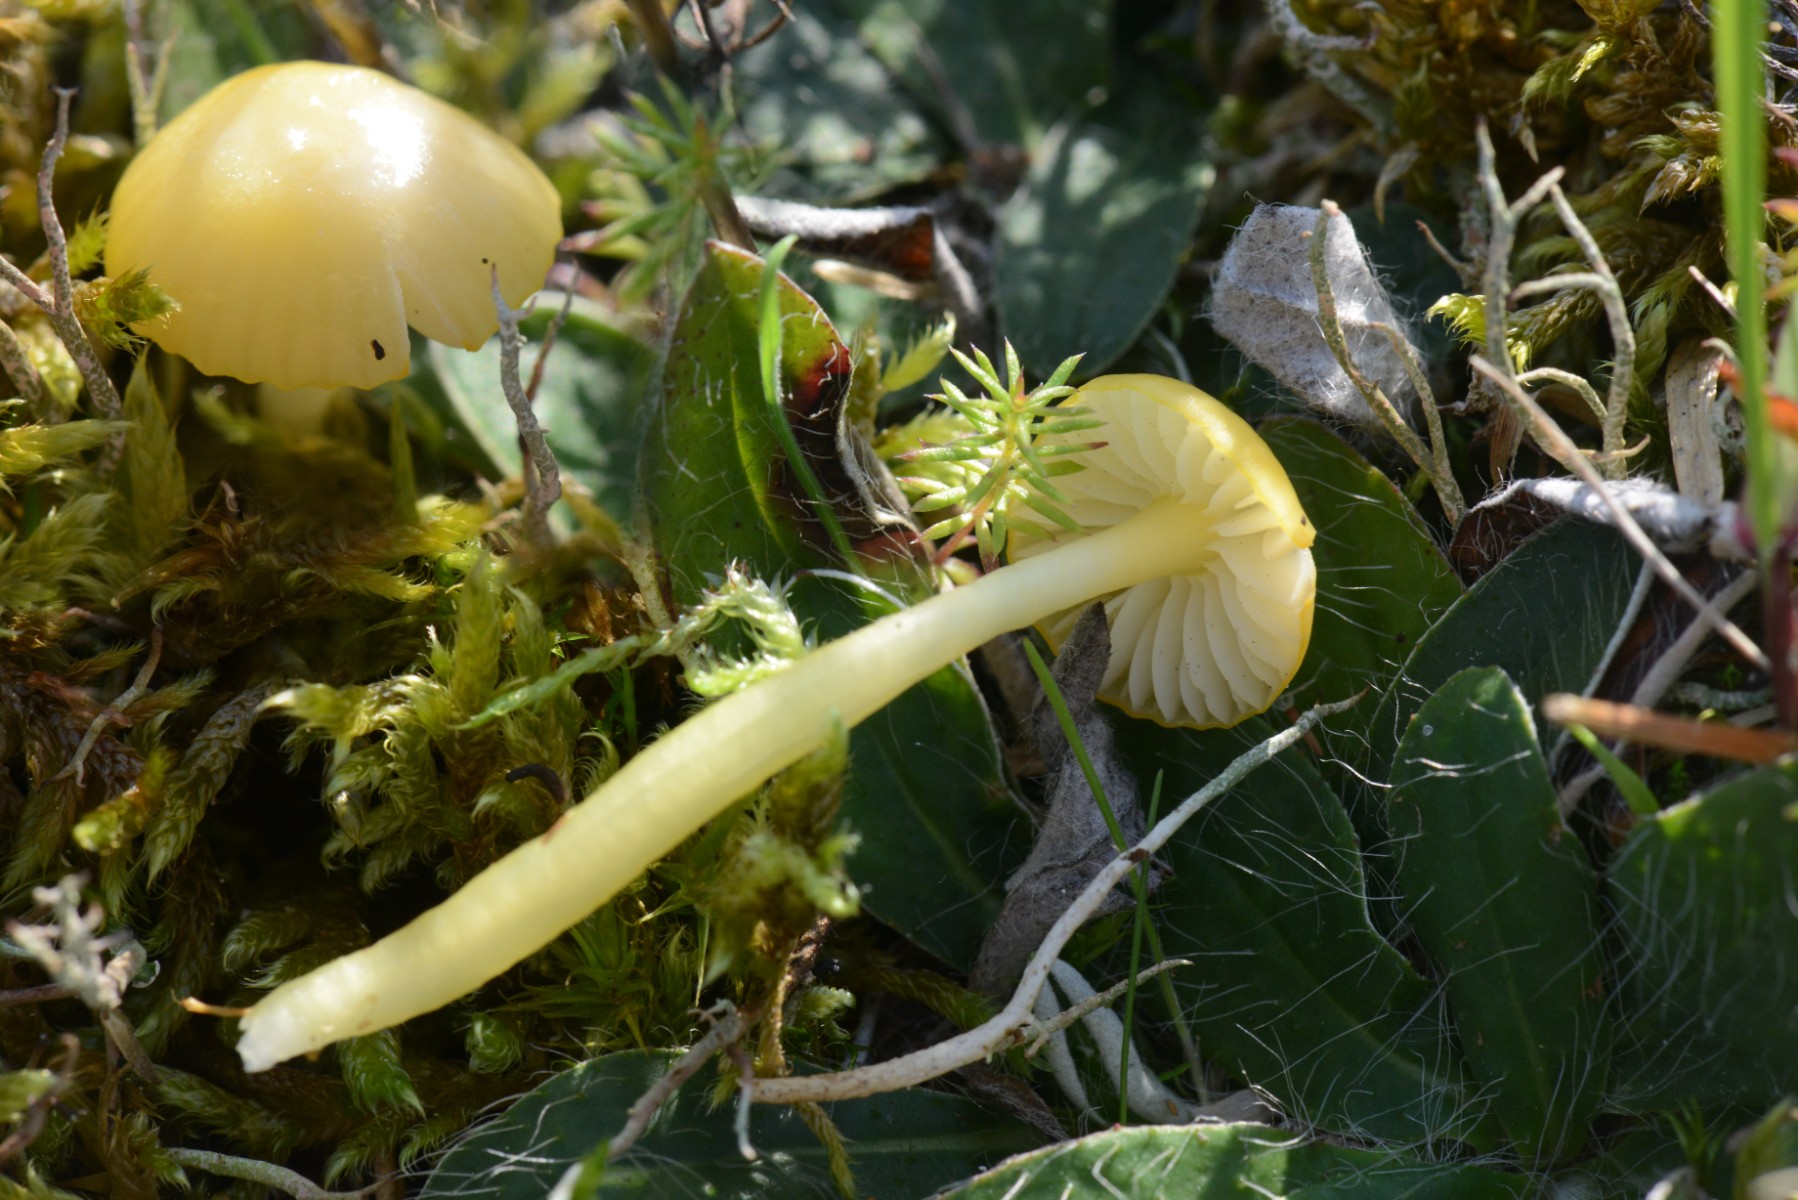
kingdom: Fungi
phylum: Basidiomycota
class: Agaricomycetes
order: Agaricales
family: Hygrophoraceae
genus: Hygrocybe
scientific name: Hygrocybe chlorophana
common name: gul vokshat
